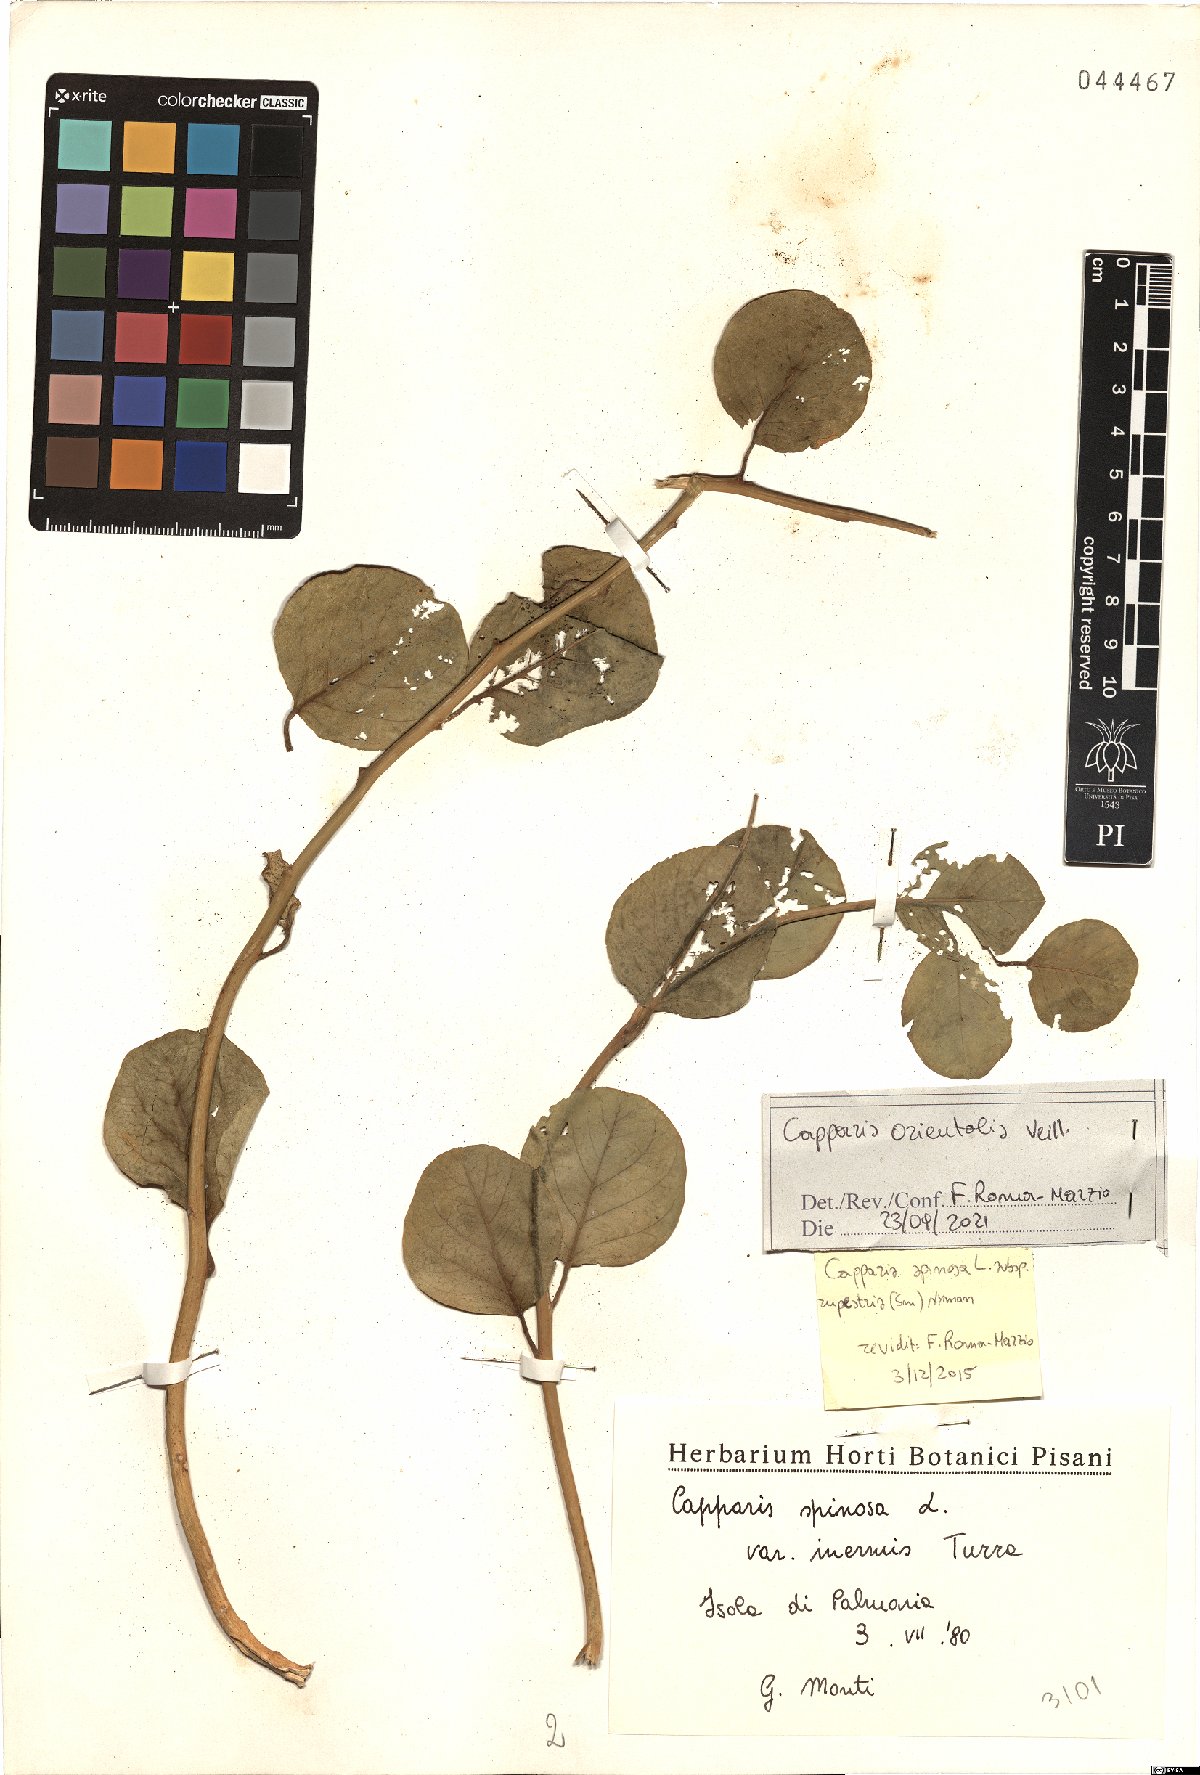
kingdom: Plantae
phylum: Tracheophyta
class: Magnoliopsida
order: Brassicales
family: Capparaceae
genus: Capparis
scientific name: Capparis spinosa
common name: Caper
